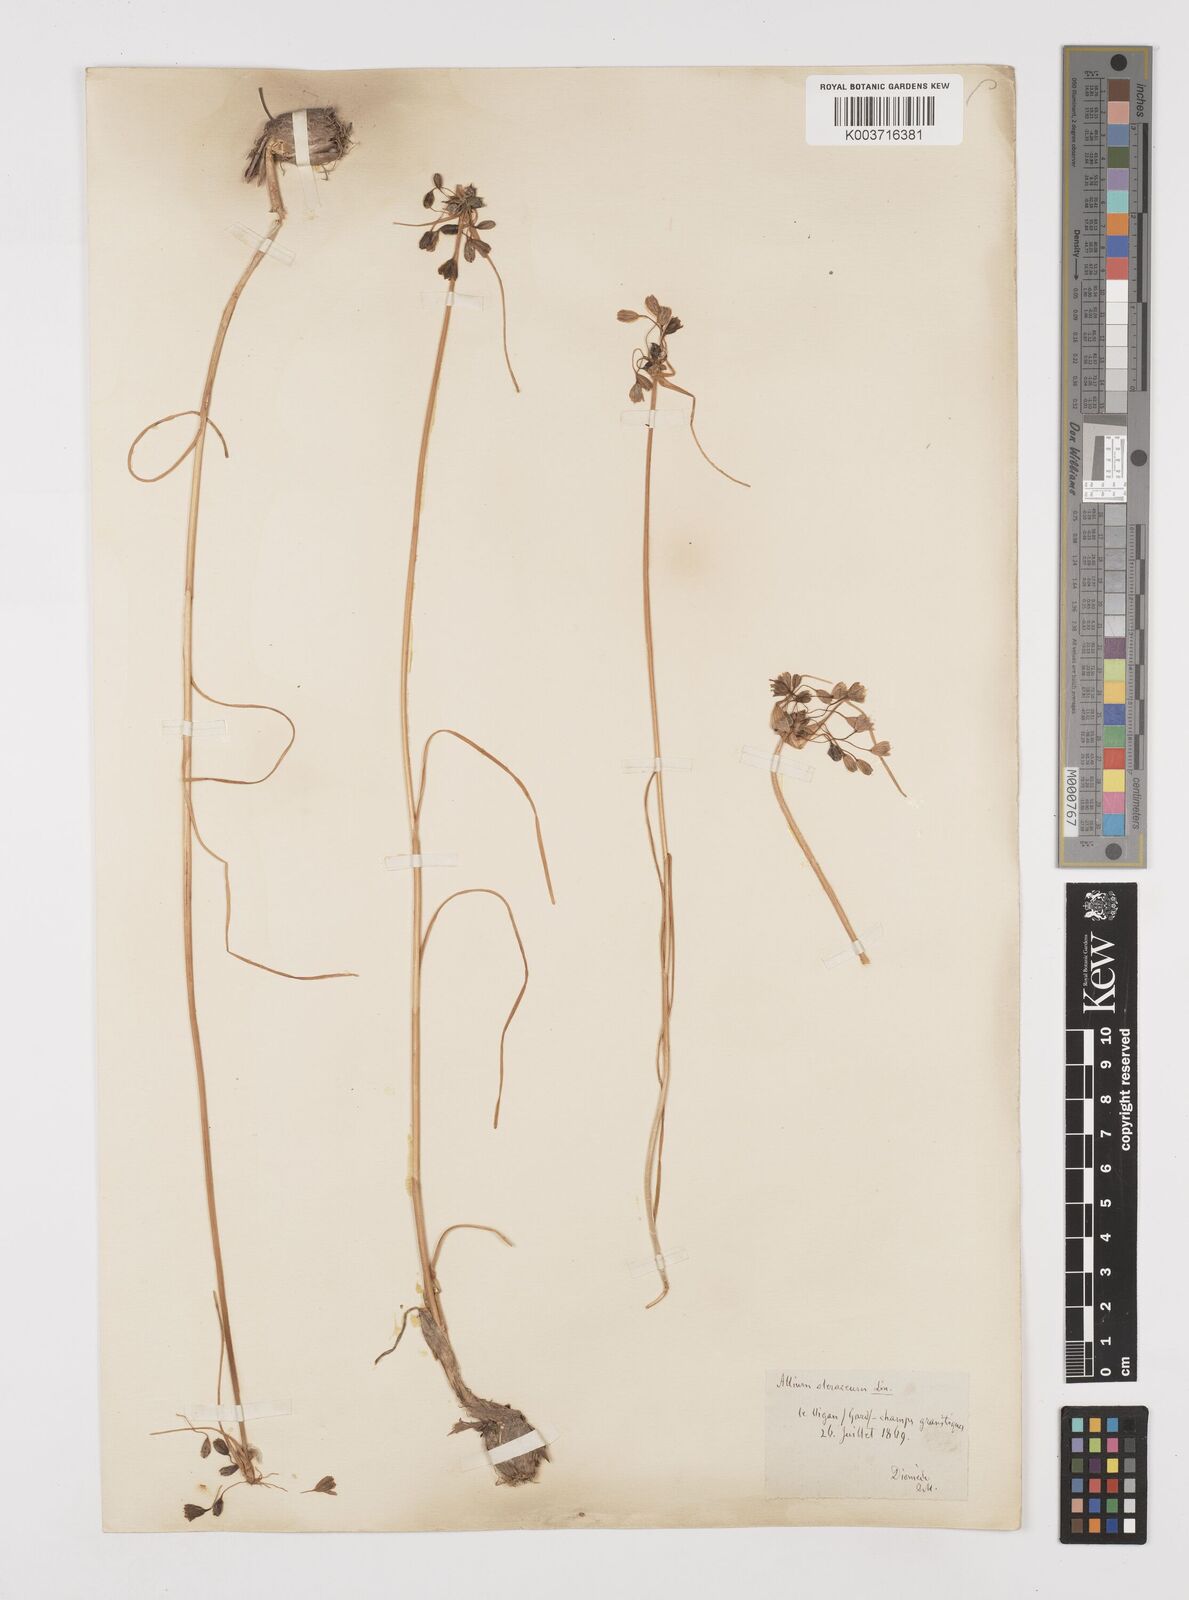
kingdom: Plantae
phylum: Tracheophyta
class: Liliopsida
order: Asparagales
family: Amaryllidaceae
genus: Allium
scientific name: Allium oleraceum
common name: Field garlic
